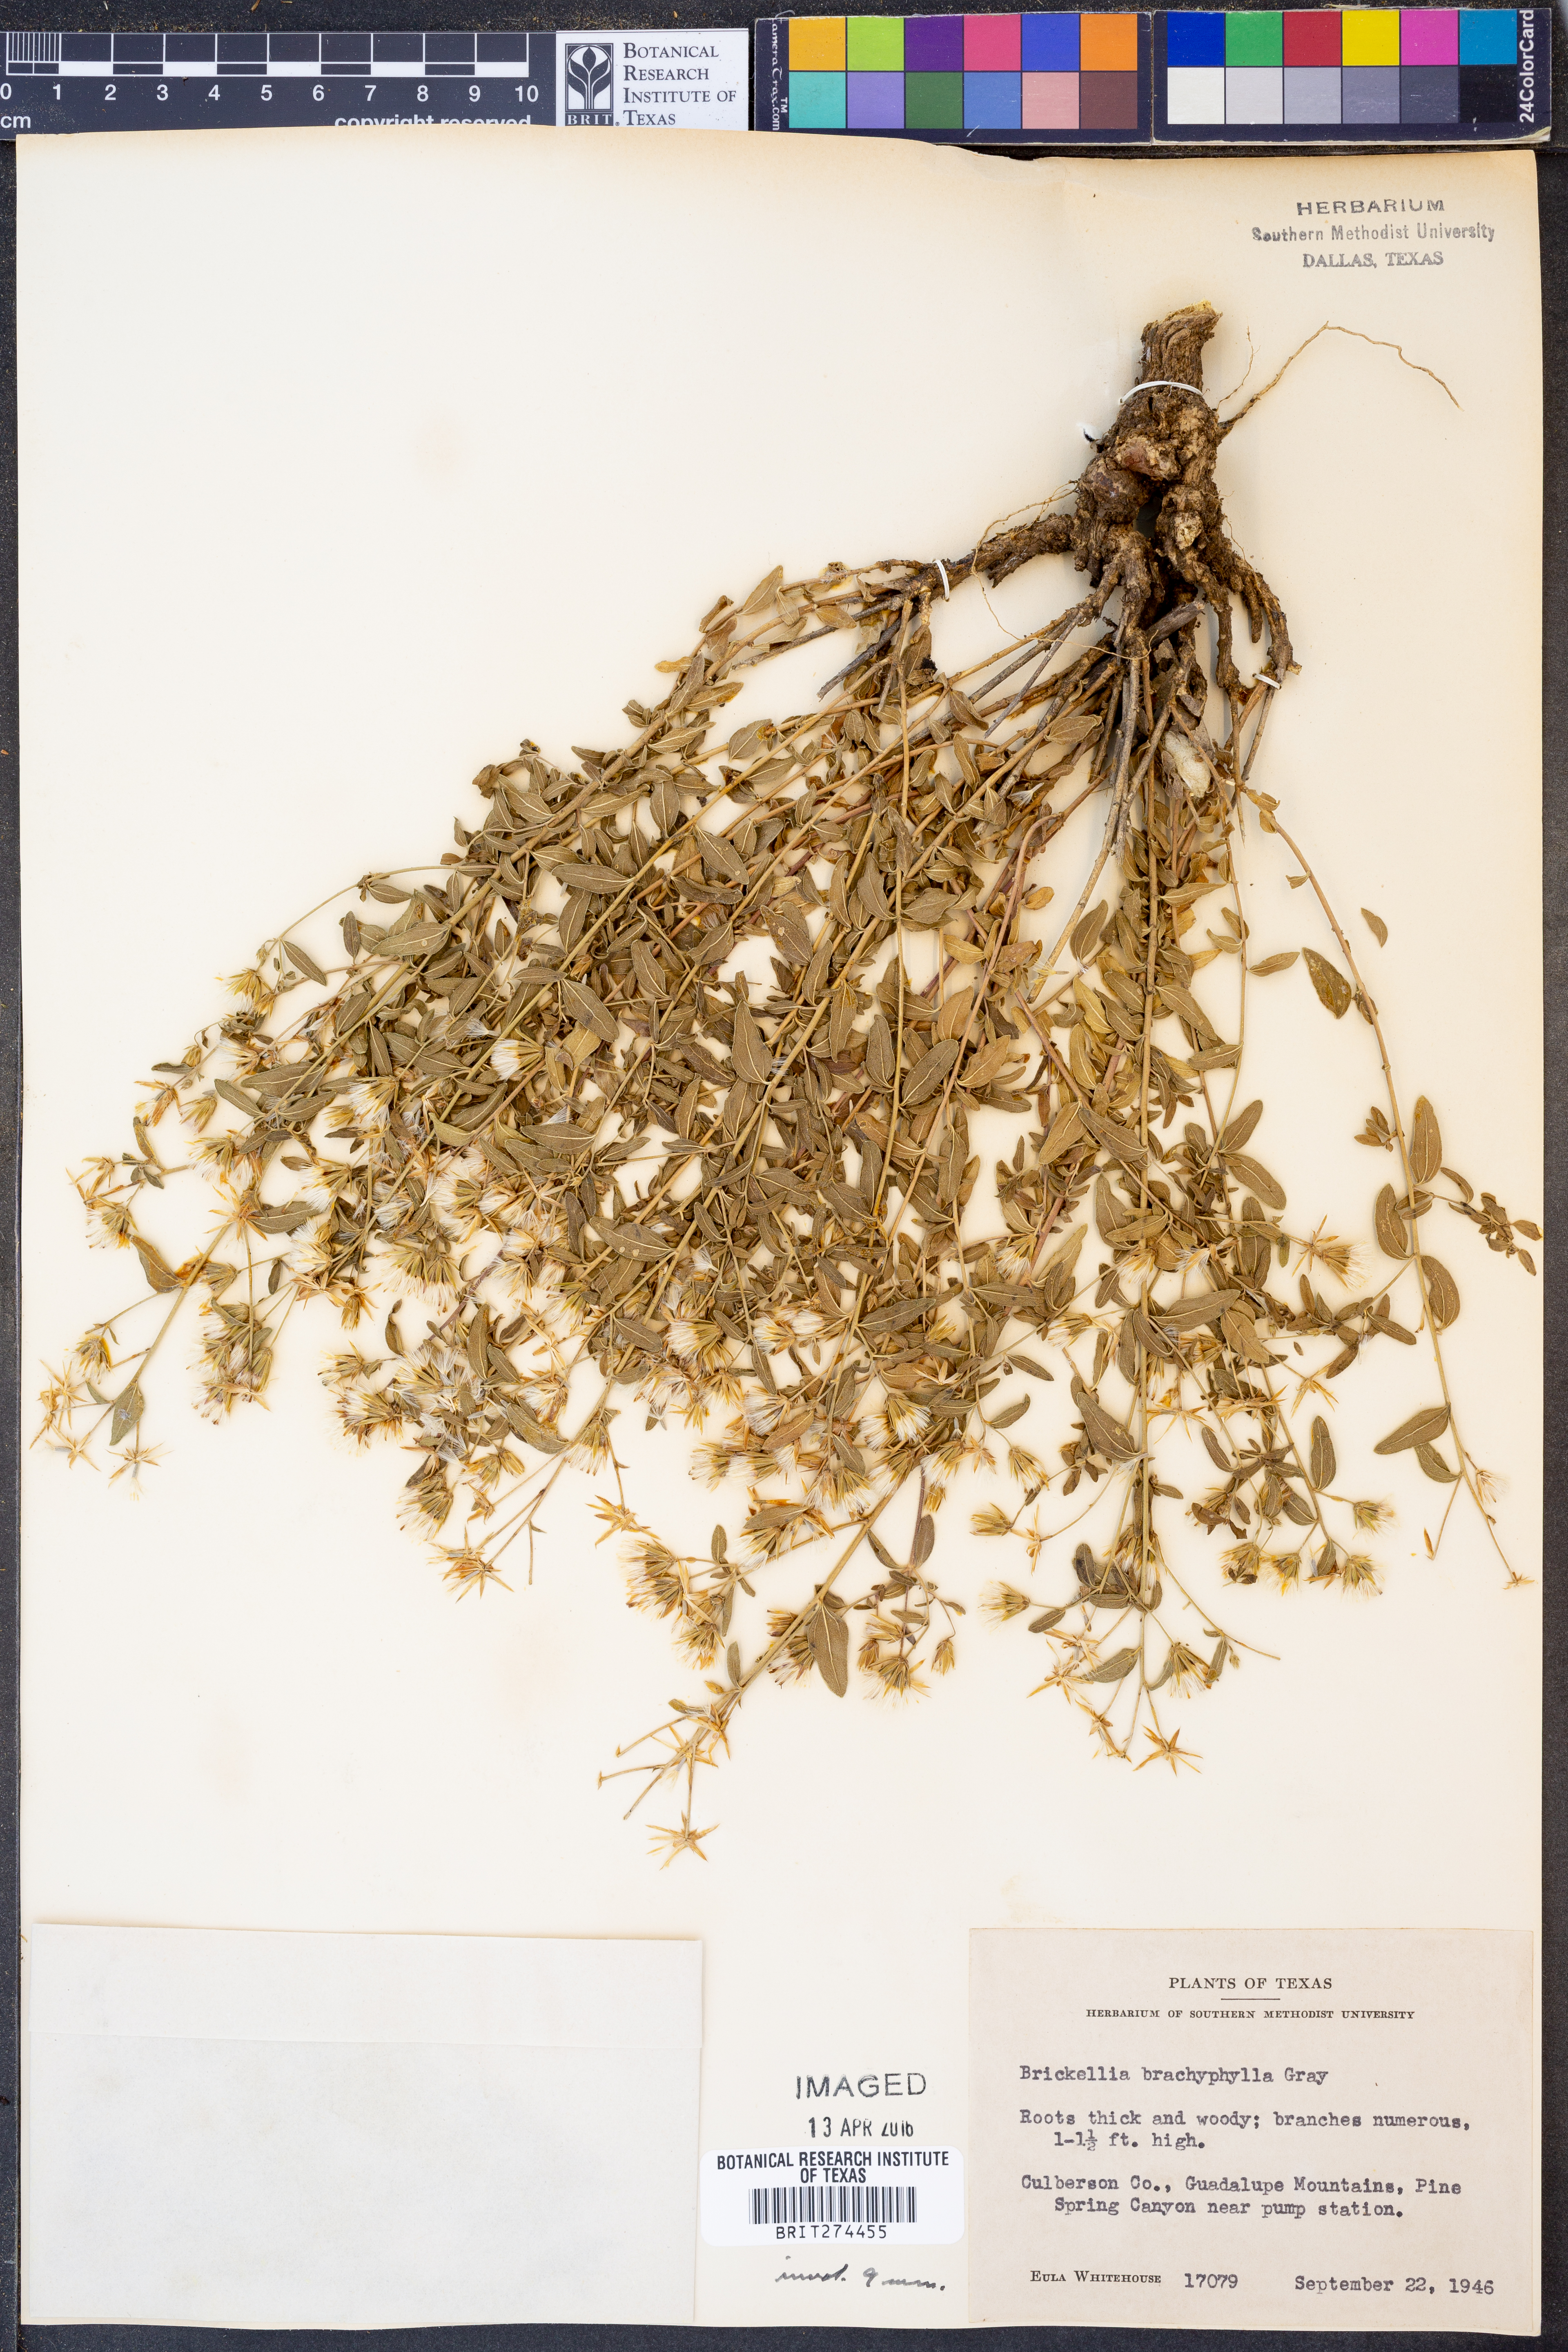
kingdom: Plantae
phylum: Tracheophyta
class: Magnoliopsida
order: Asterales
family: Asteraceae
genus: Brickellia
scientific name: Brickellia brachyphylla
